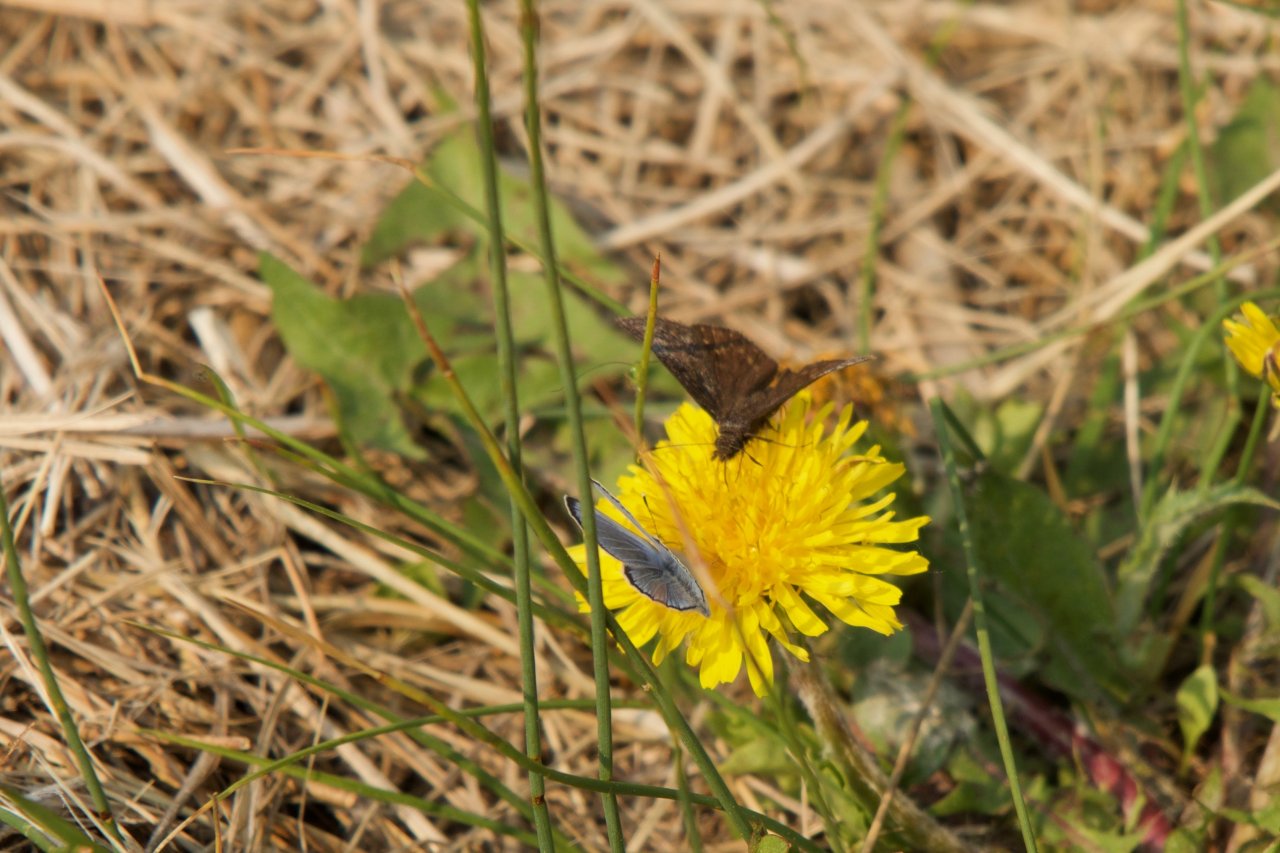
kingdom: Animalia
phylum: Arthropoda
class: Insecta
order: Lepidoptera
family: Hesperiidae
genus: Erynnis
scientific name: Erynnis icelus
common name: Dreamy Duskywing
